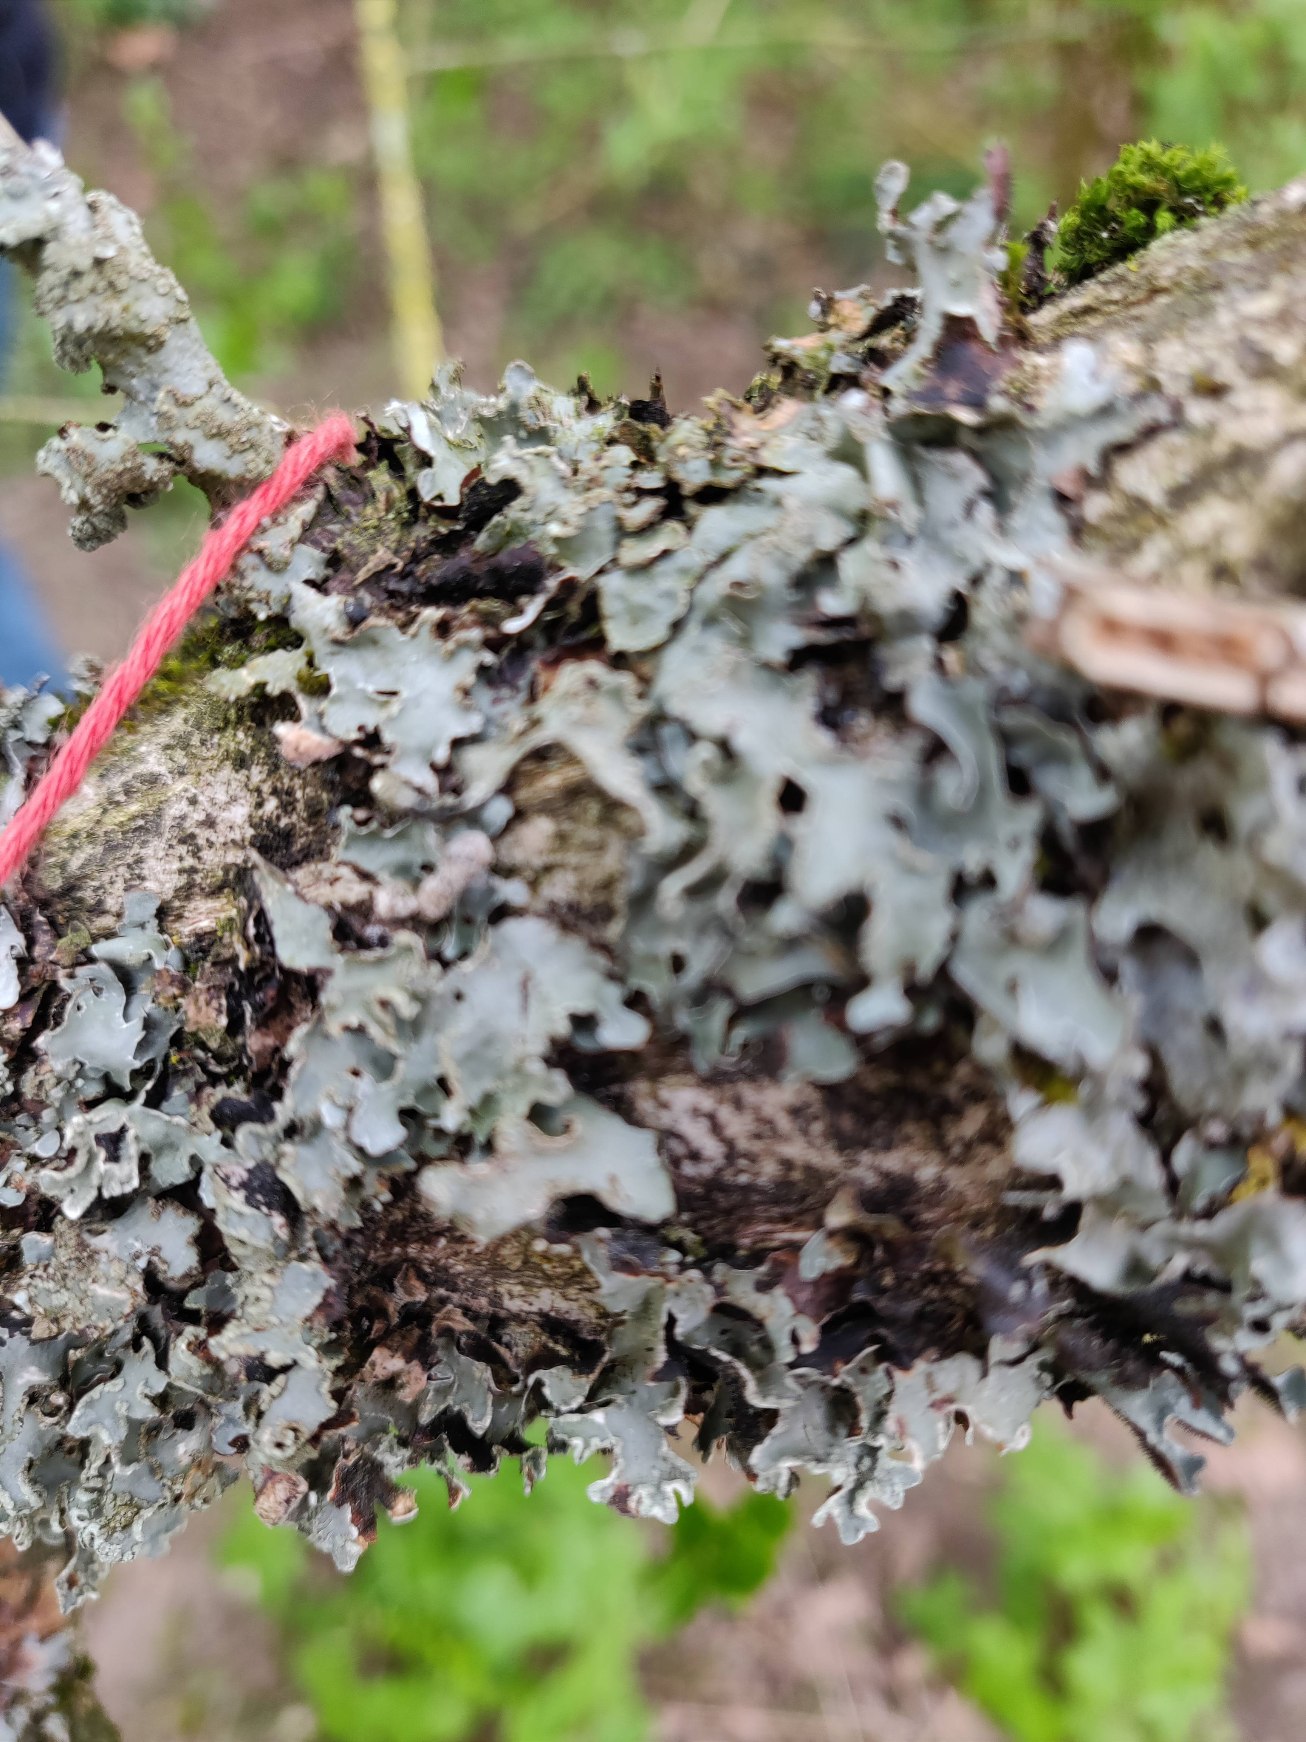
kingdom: Fungi
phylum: Ascomycota
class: Lecanoromycetes
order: Lecanorales
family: Parmeliaceae
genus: Parmelia
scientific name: Parmelia sulcata
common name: Rynket skållav
